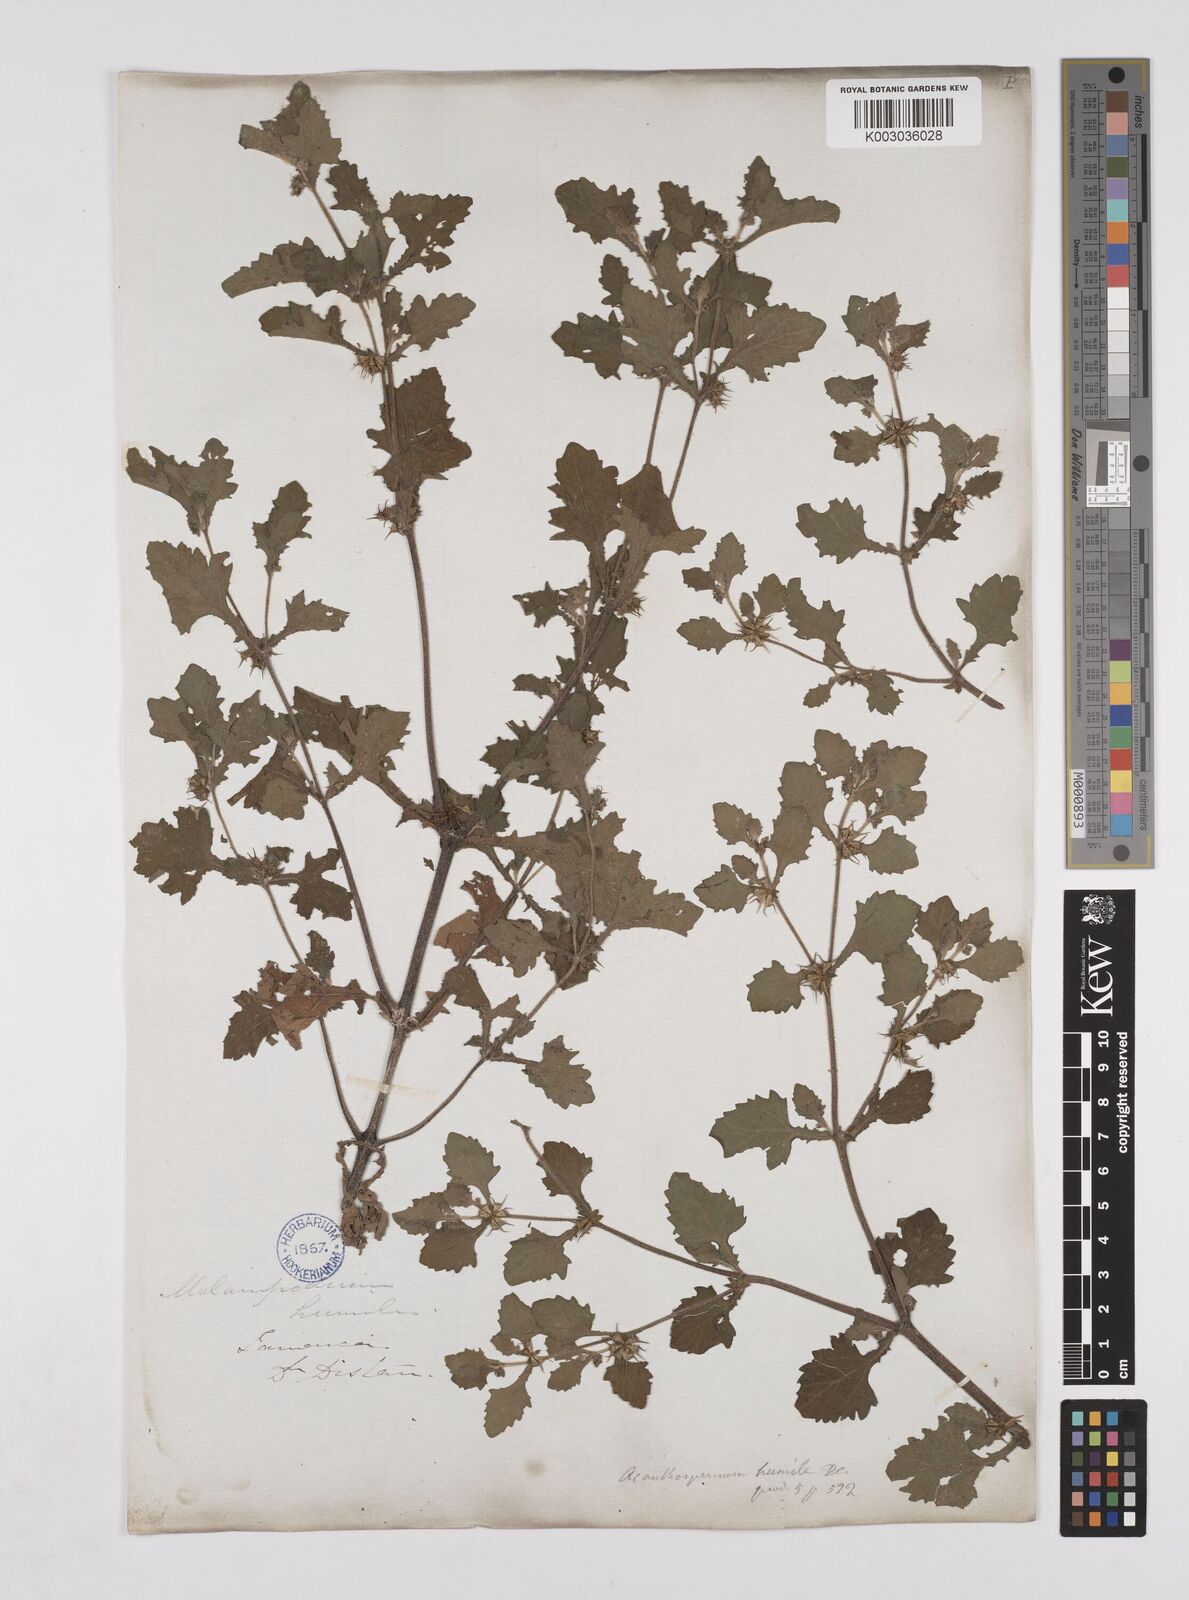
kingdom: Plantae
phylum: Tracheophyta
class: Magnoliopsida
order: Asterales
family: Asteraceae
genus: Acanthospermum
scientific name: Acanthospermum humile
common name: Low starbur
